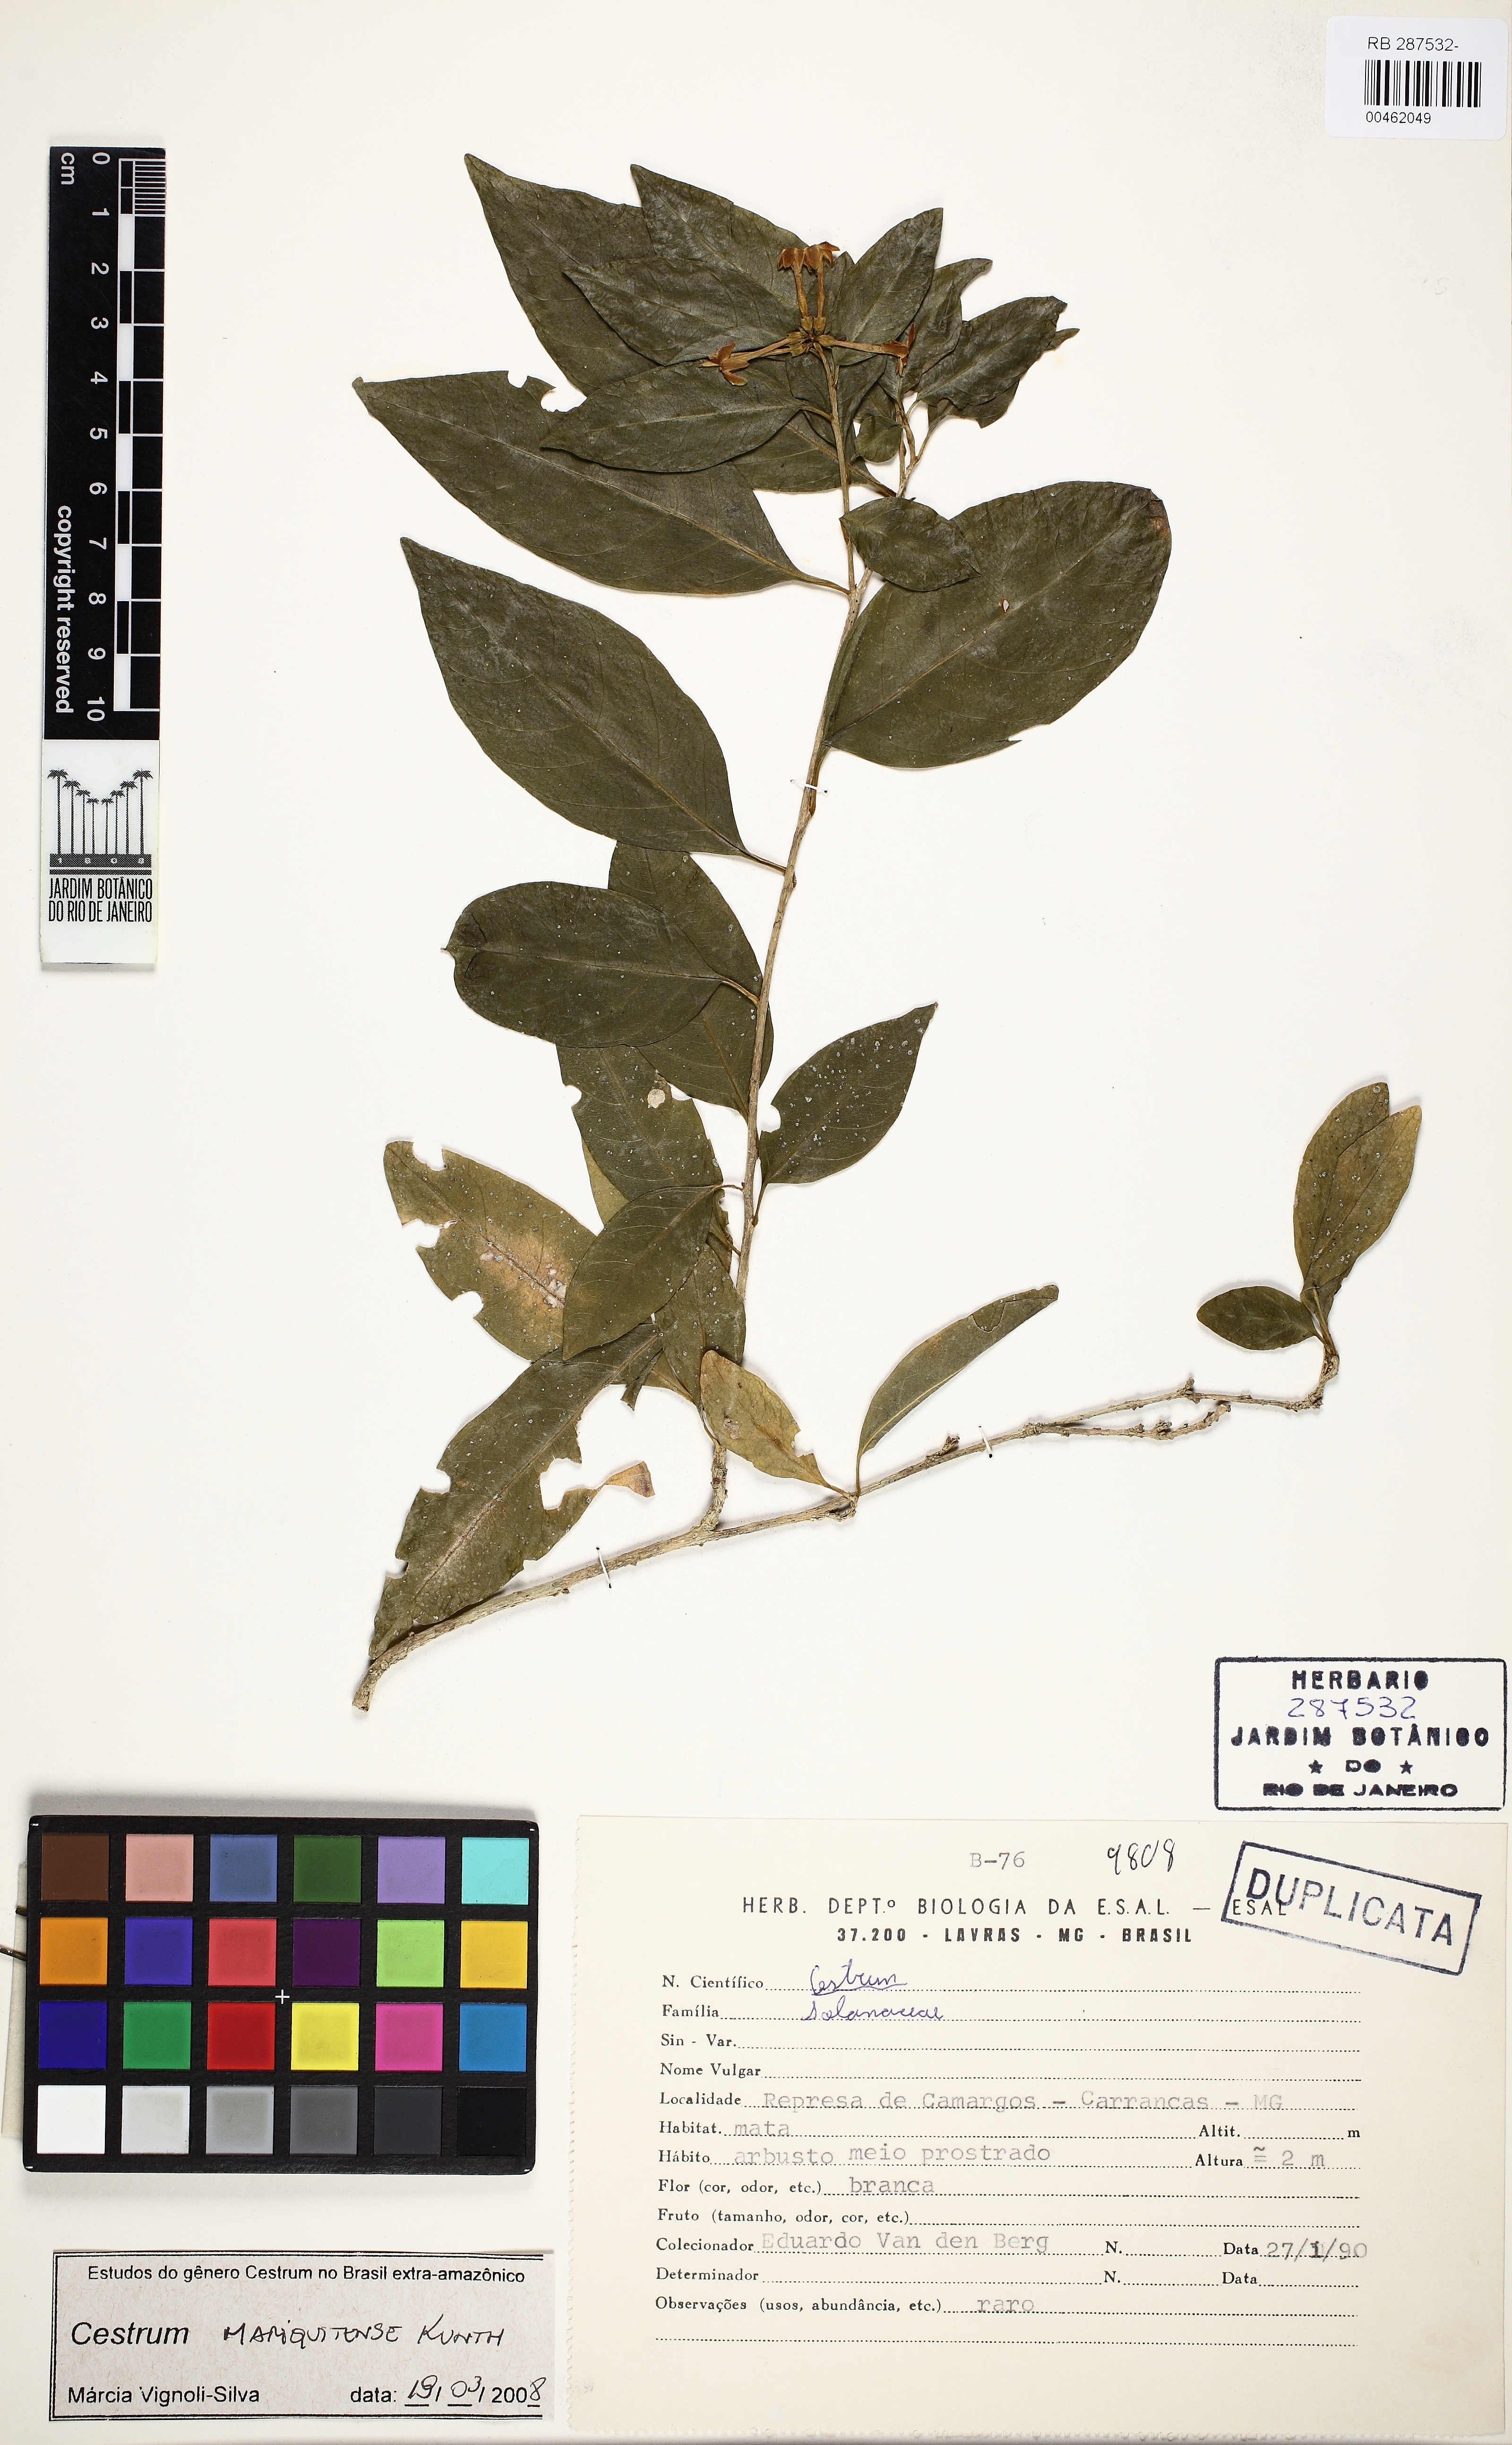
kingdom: Plantae
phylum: Tracheophyta
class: Magnoliopsida
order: Solanales
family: Solanaceae
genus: Cestrum
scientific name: Cestrum mariquitense
